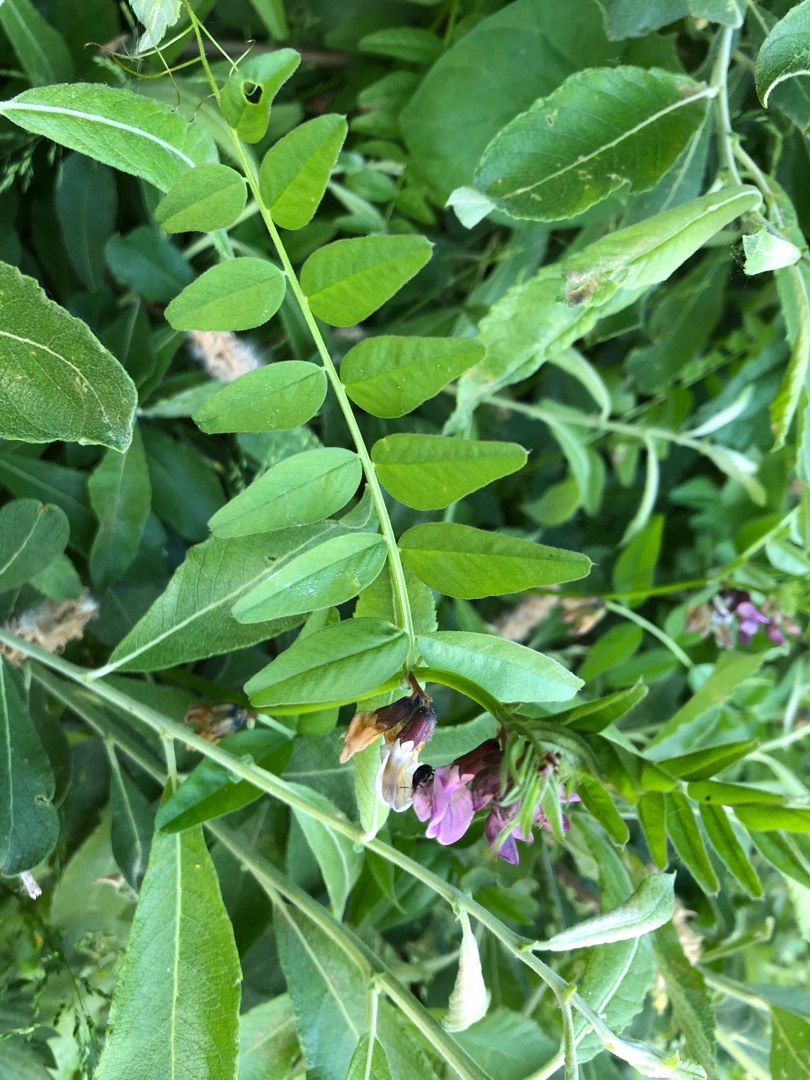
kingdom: Plantae
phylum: Tracheophyta
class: Magnoliopsida
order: Fabales
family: Fabaceae
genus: Vicia
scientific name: Vicia sepium
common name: Gærde-vikke
